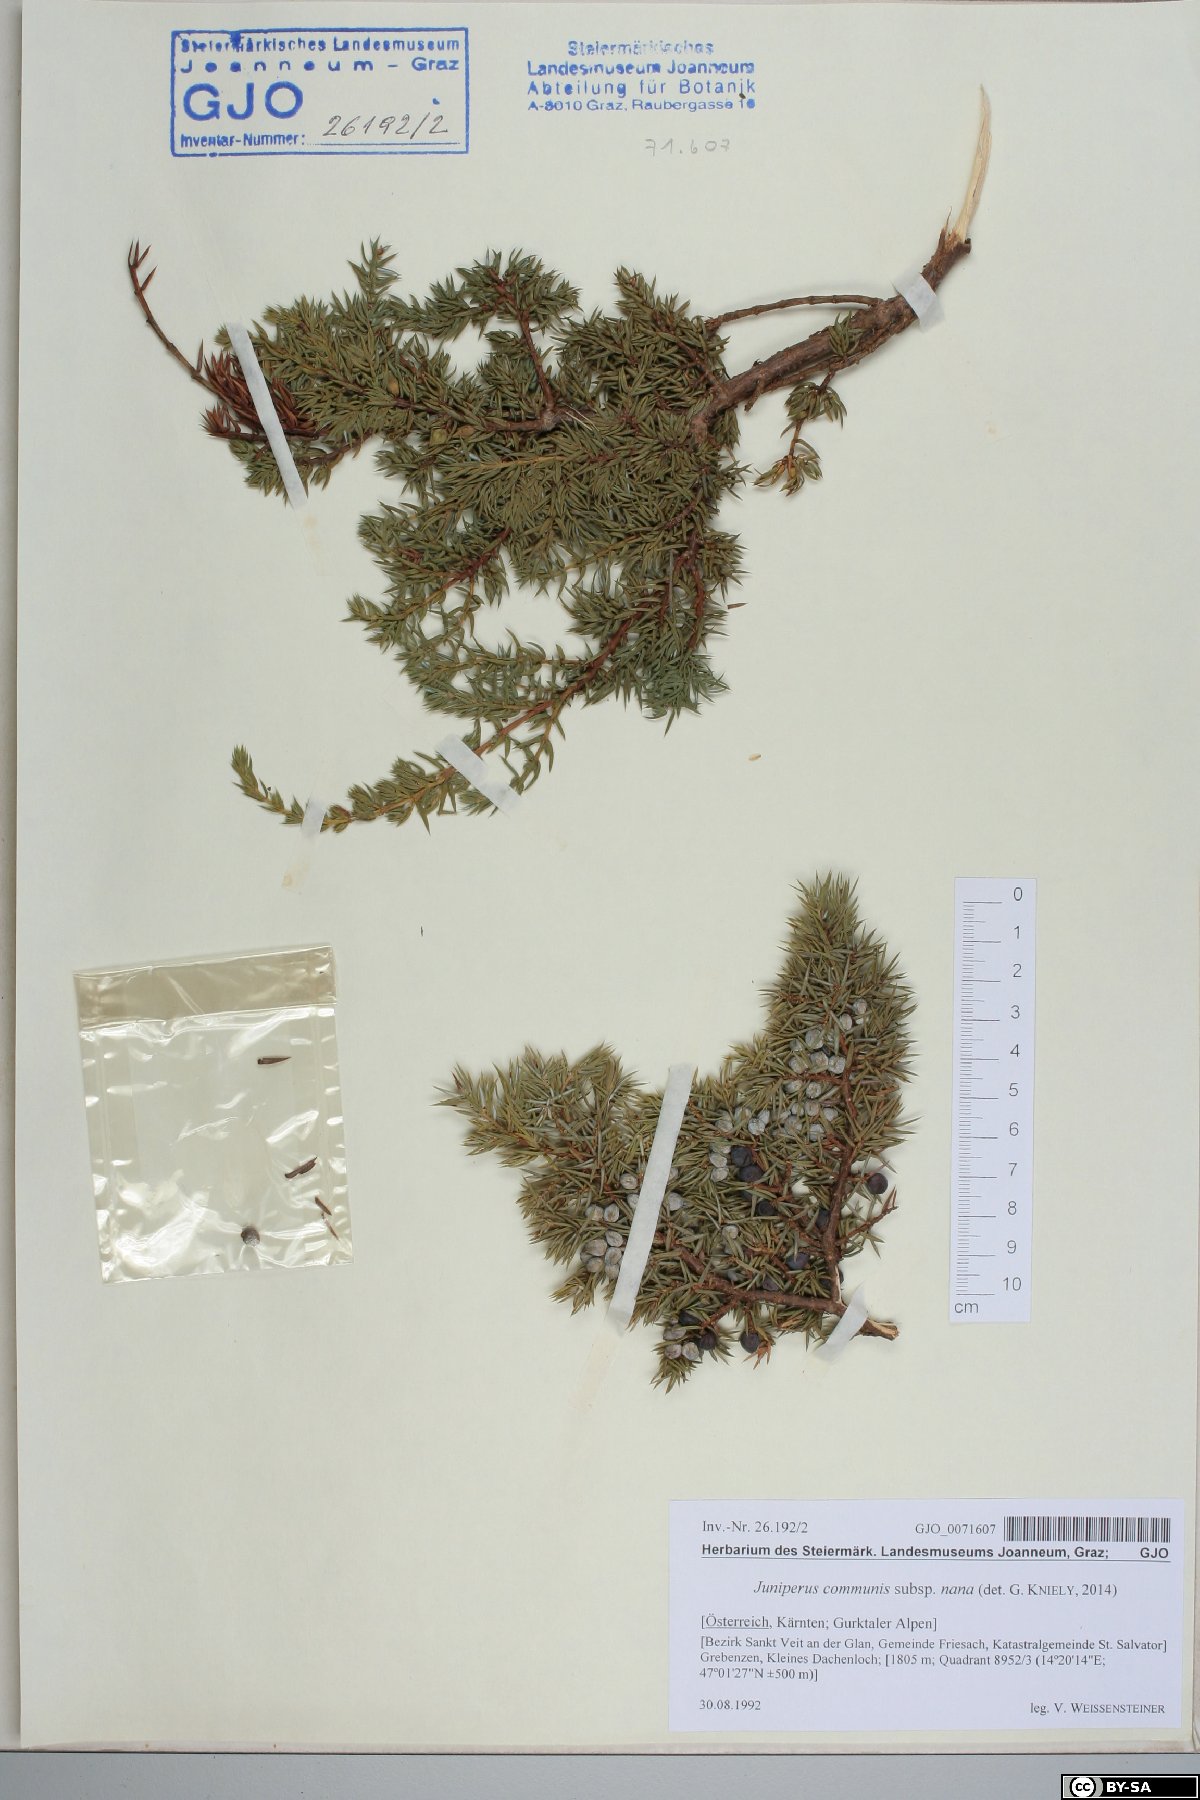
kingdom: Plantae
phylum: Tracheophyta
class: Pinopsida
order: Pinales
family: Cupressaceae
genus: Juniperus
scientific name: Juniperus communis
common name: Common juniper
